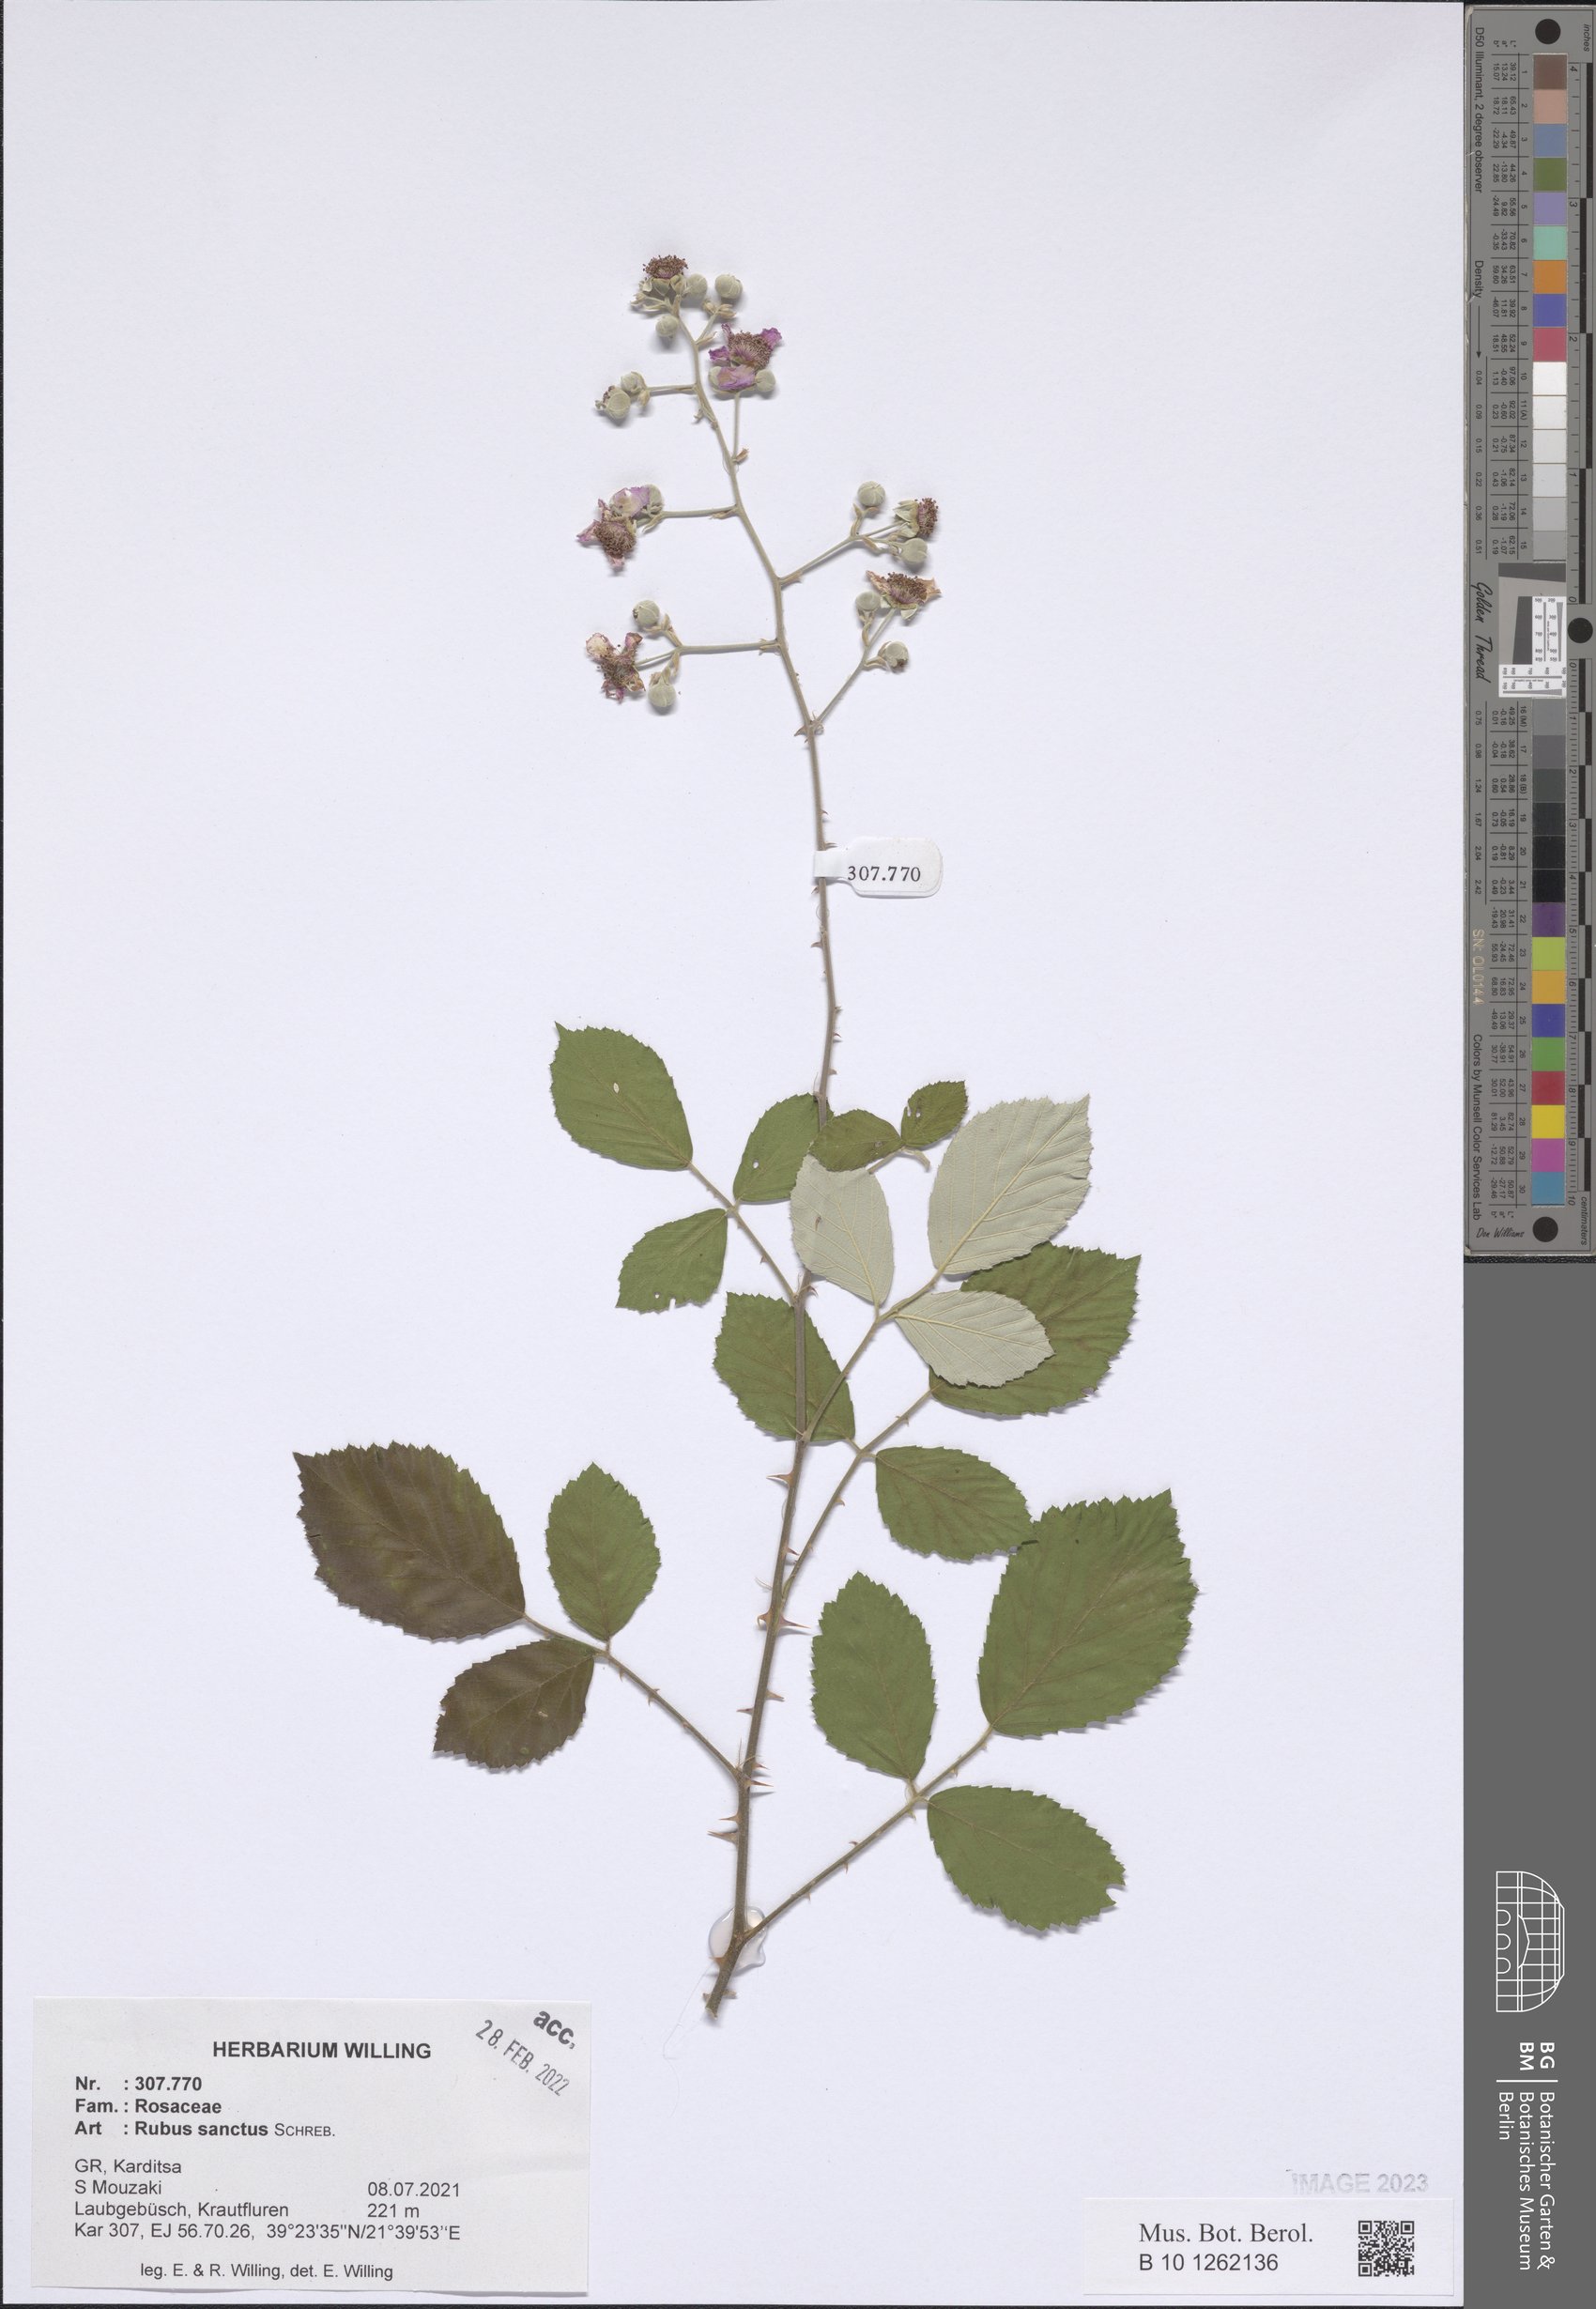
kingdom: Plantae
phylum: Tracheophyta
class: Magnoliopsida
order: Rosales
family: Rosaceae
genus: Rubus
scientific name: Rubus sanctus
